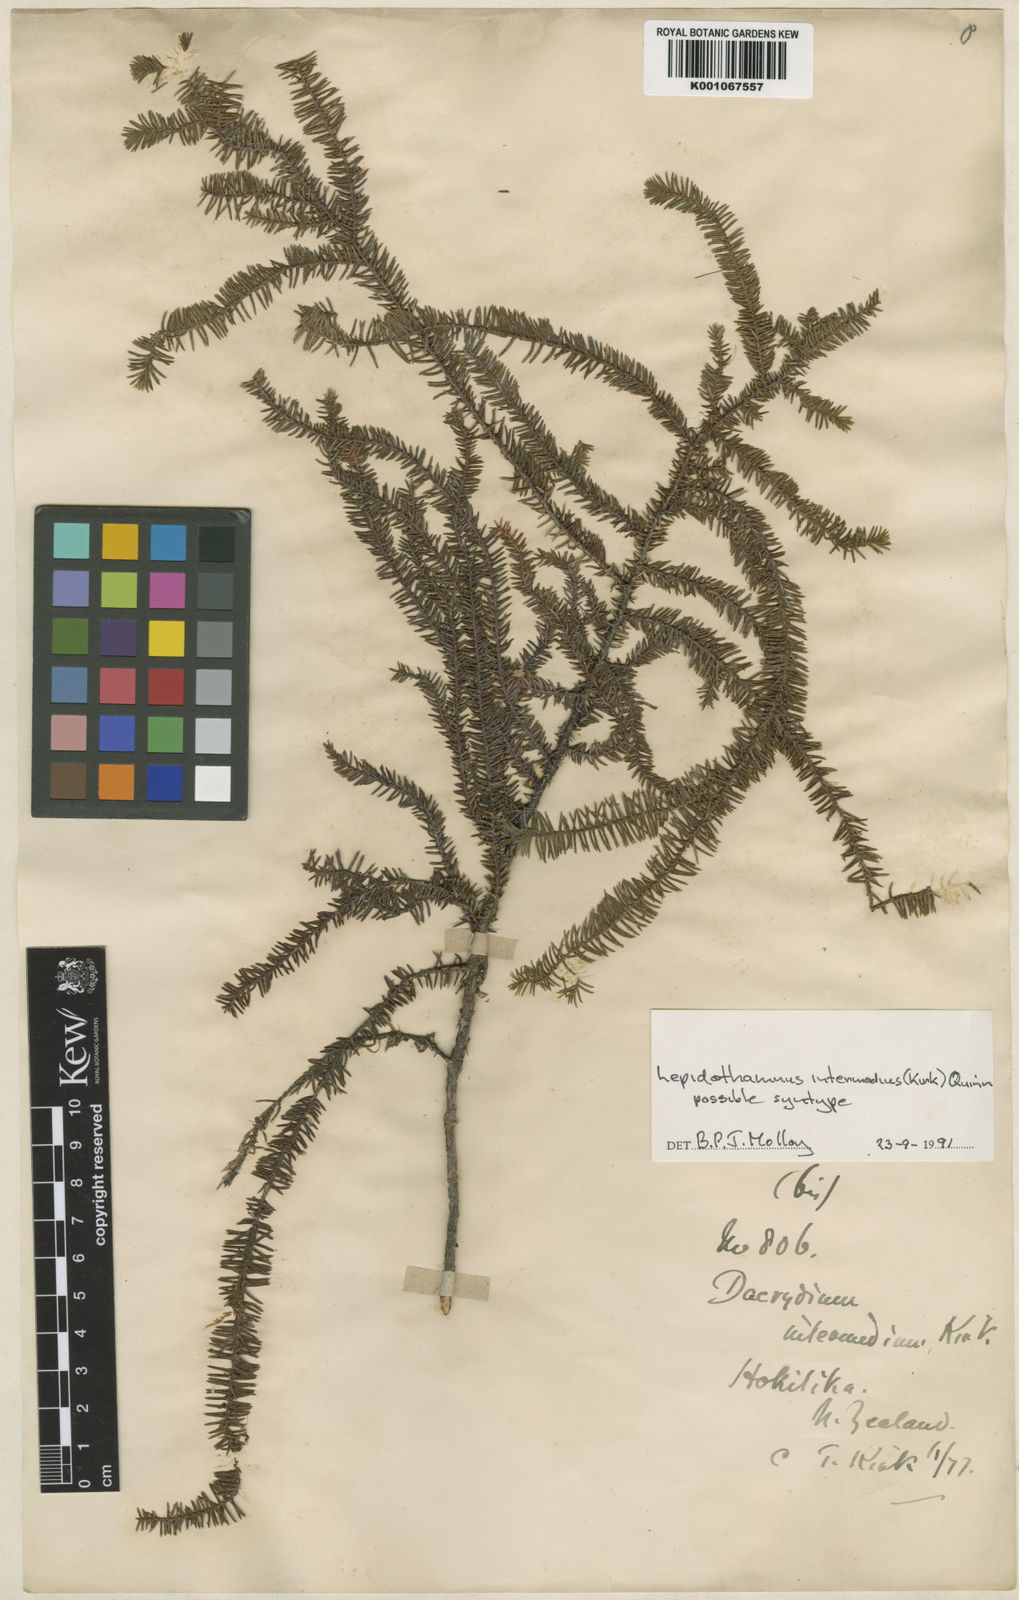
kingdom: Plantae
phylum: Tracheophyta
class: Pinopsida
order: Pinales
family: Podocarpaceae
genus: Lepidothamnus
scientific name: Lepidothamnus intermedius
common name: Yellow silver pine
